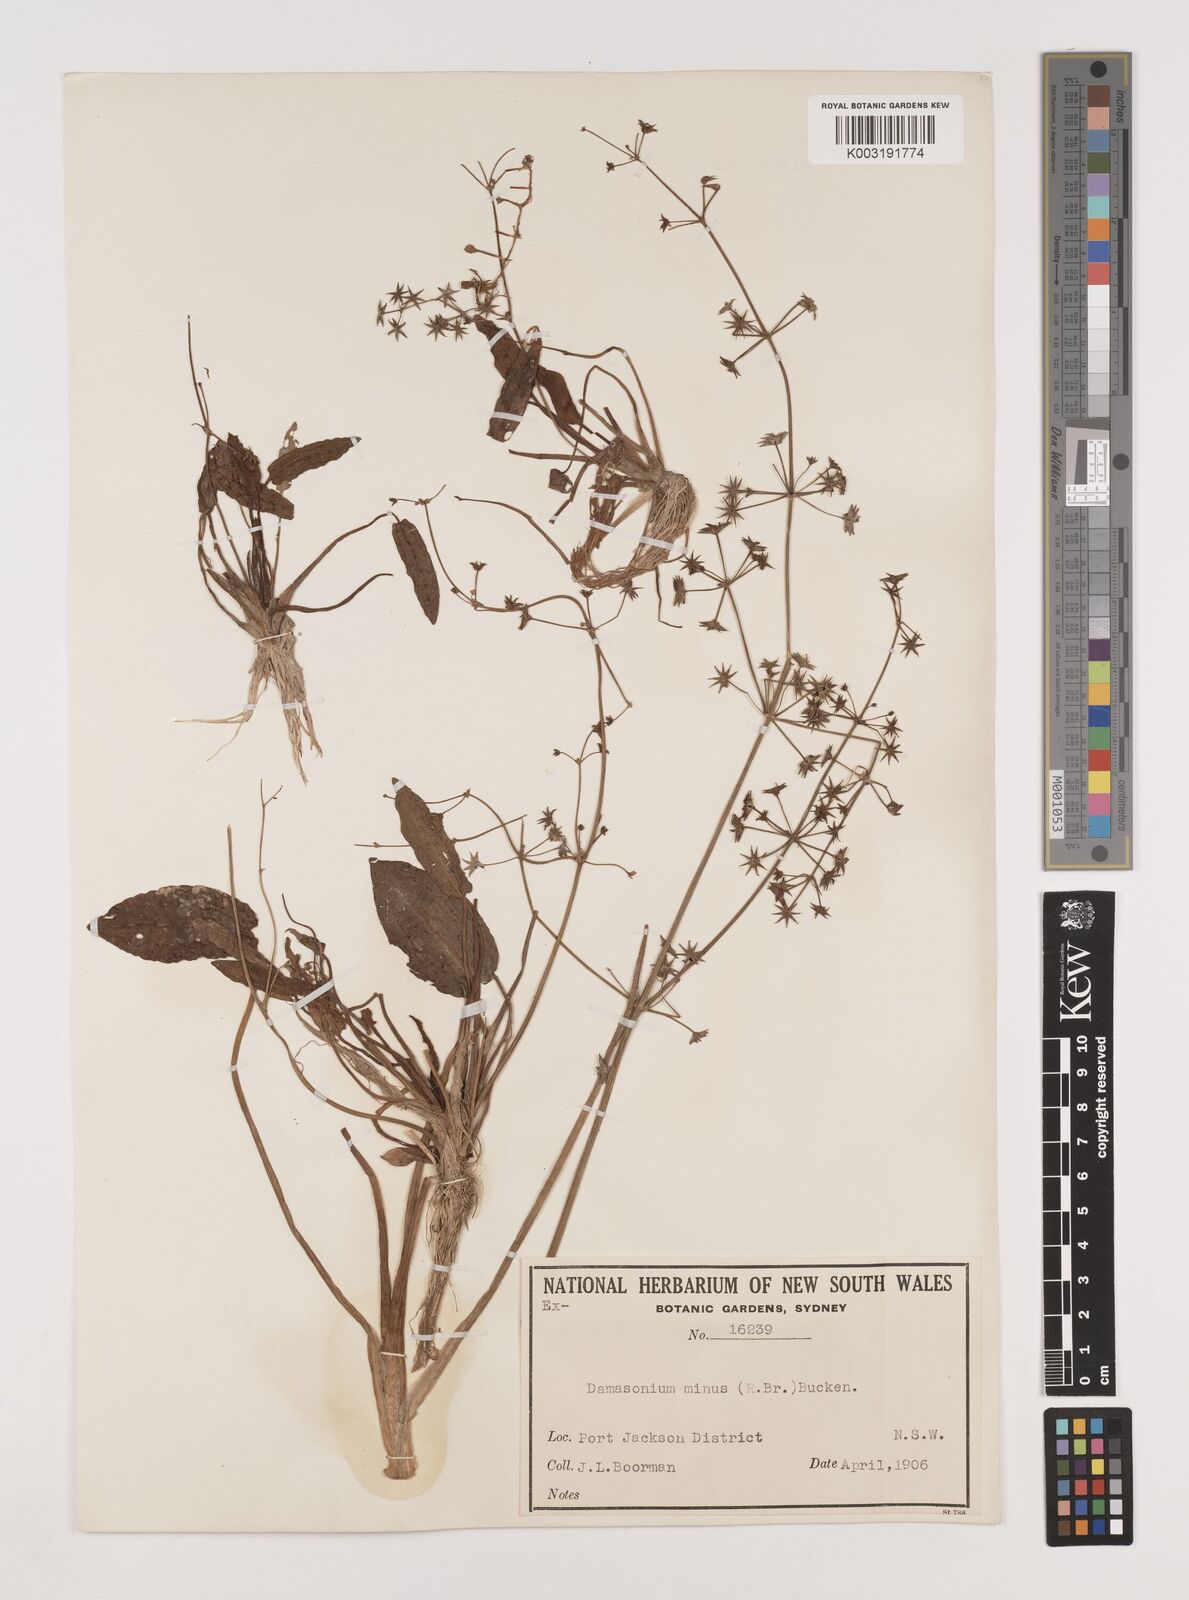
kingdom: Plantae
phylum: Tracheophyta
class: Liliopsida
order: Alismatales
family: Alismataceae
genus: Damasonium
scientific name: Damasonium minus
